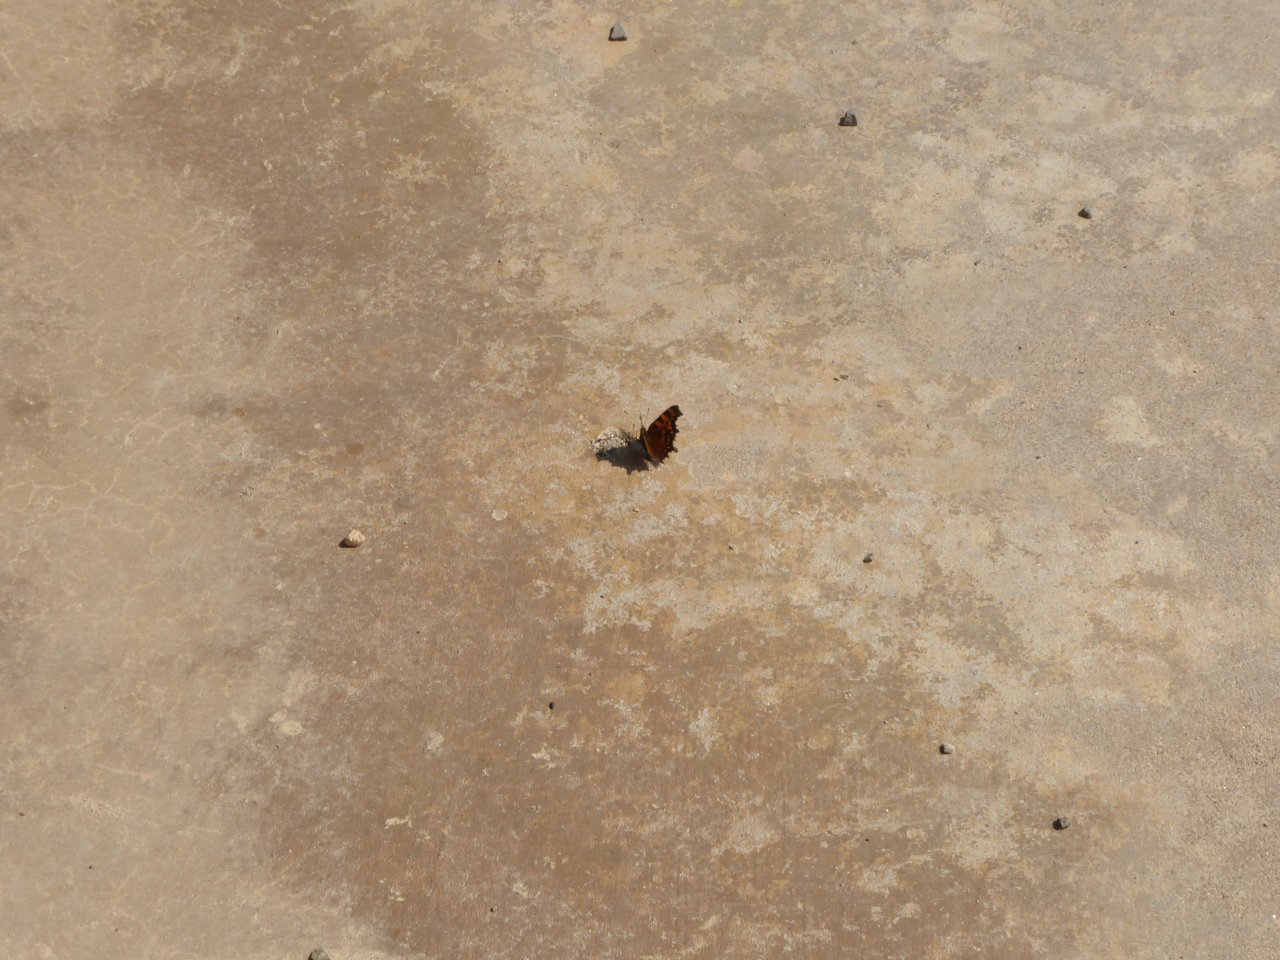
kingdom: Animalia
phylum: Arthropoda
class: Insecta
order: Lepidoptera
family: Nymphalidae
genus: Polygonia
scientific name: Polygonia faunus
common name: Green Comma
